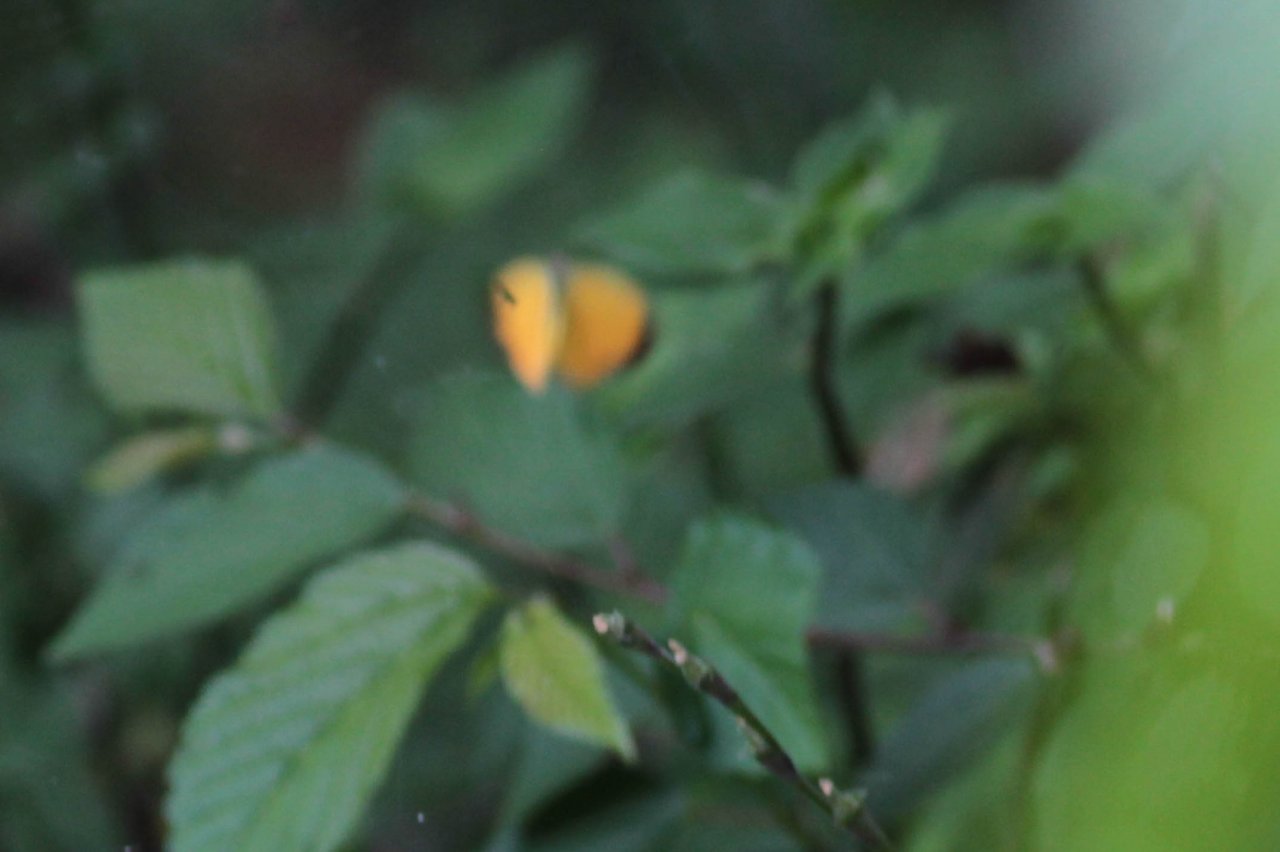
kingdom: Animalia
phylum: Arthropoda
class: Insecta
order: Lepidoptera
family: Pieridae
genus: Pyrisitia
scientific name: Pyrisitia dina
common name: Dina Yellow
